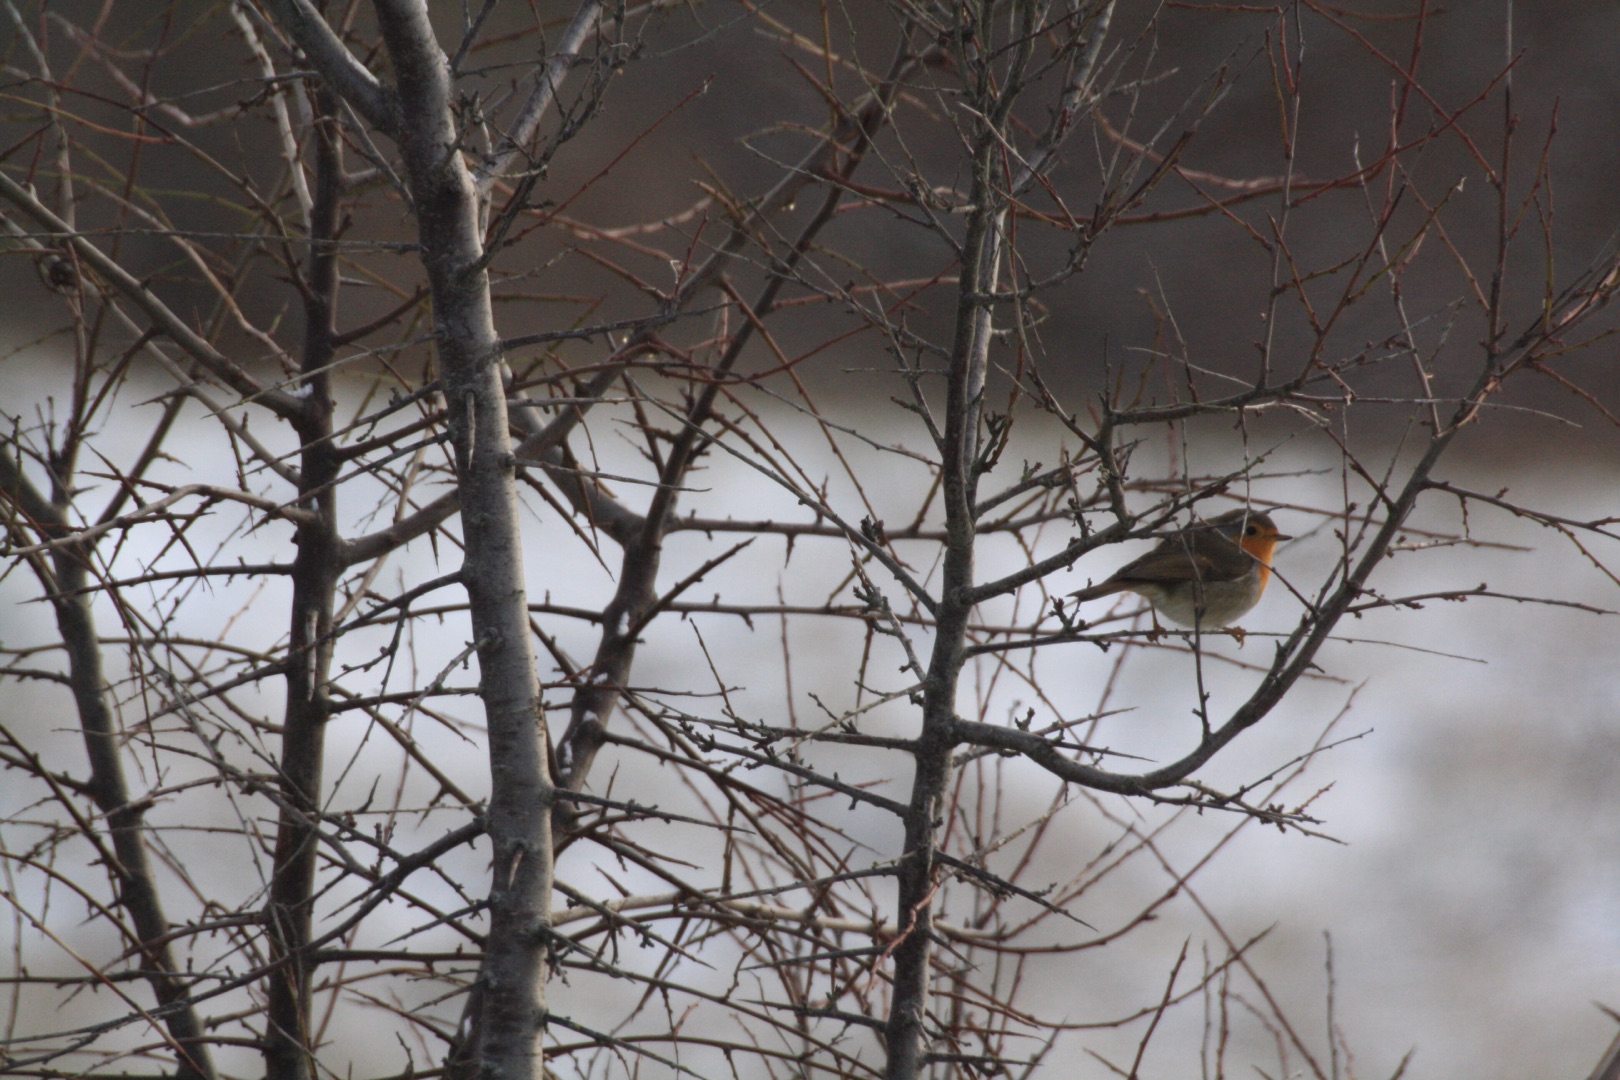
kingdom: Animalia
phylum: Chordata
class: Aves
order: Passeriformes
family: Muscicapidae
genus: Erithacus
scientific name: Erithacus rubecula
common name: Rødhals/rødkælk
